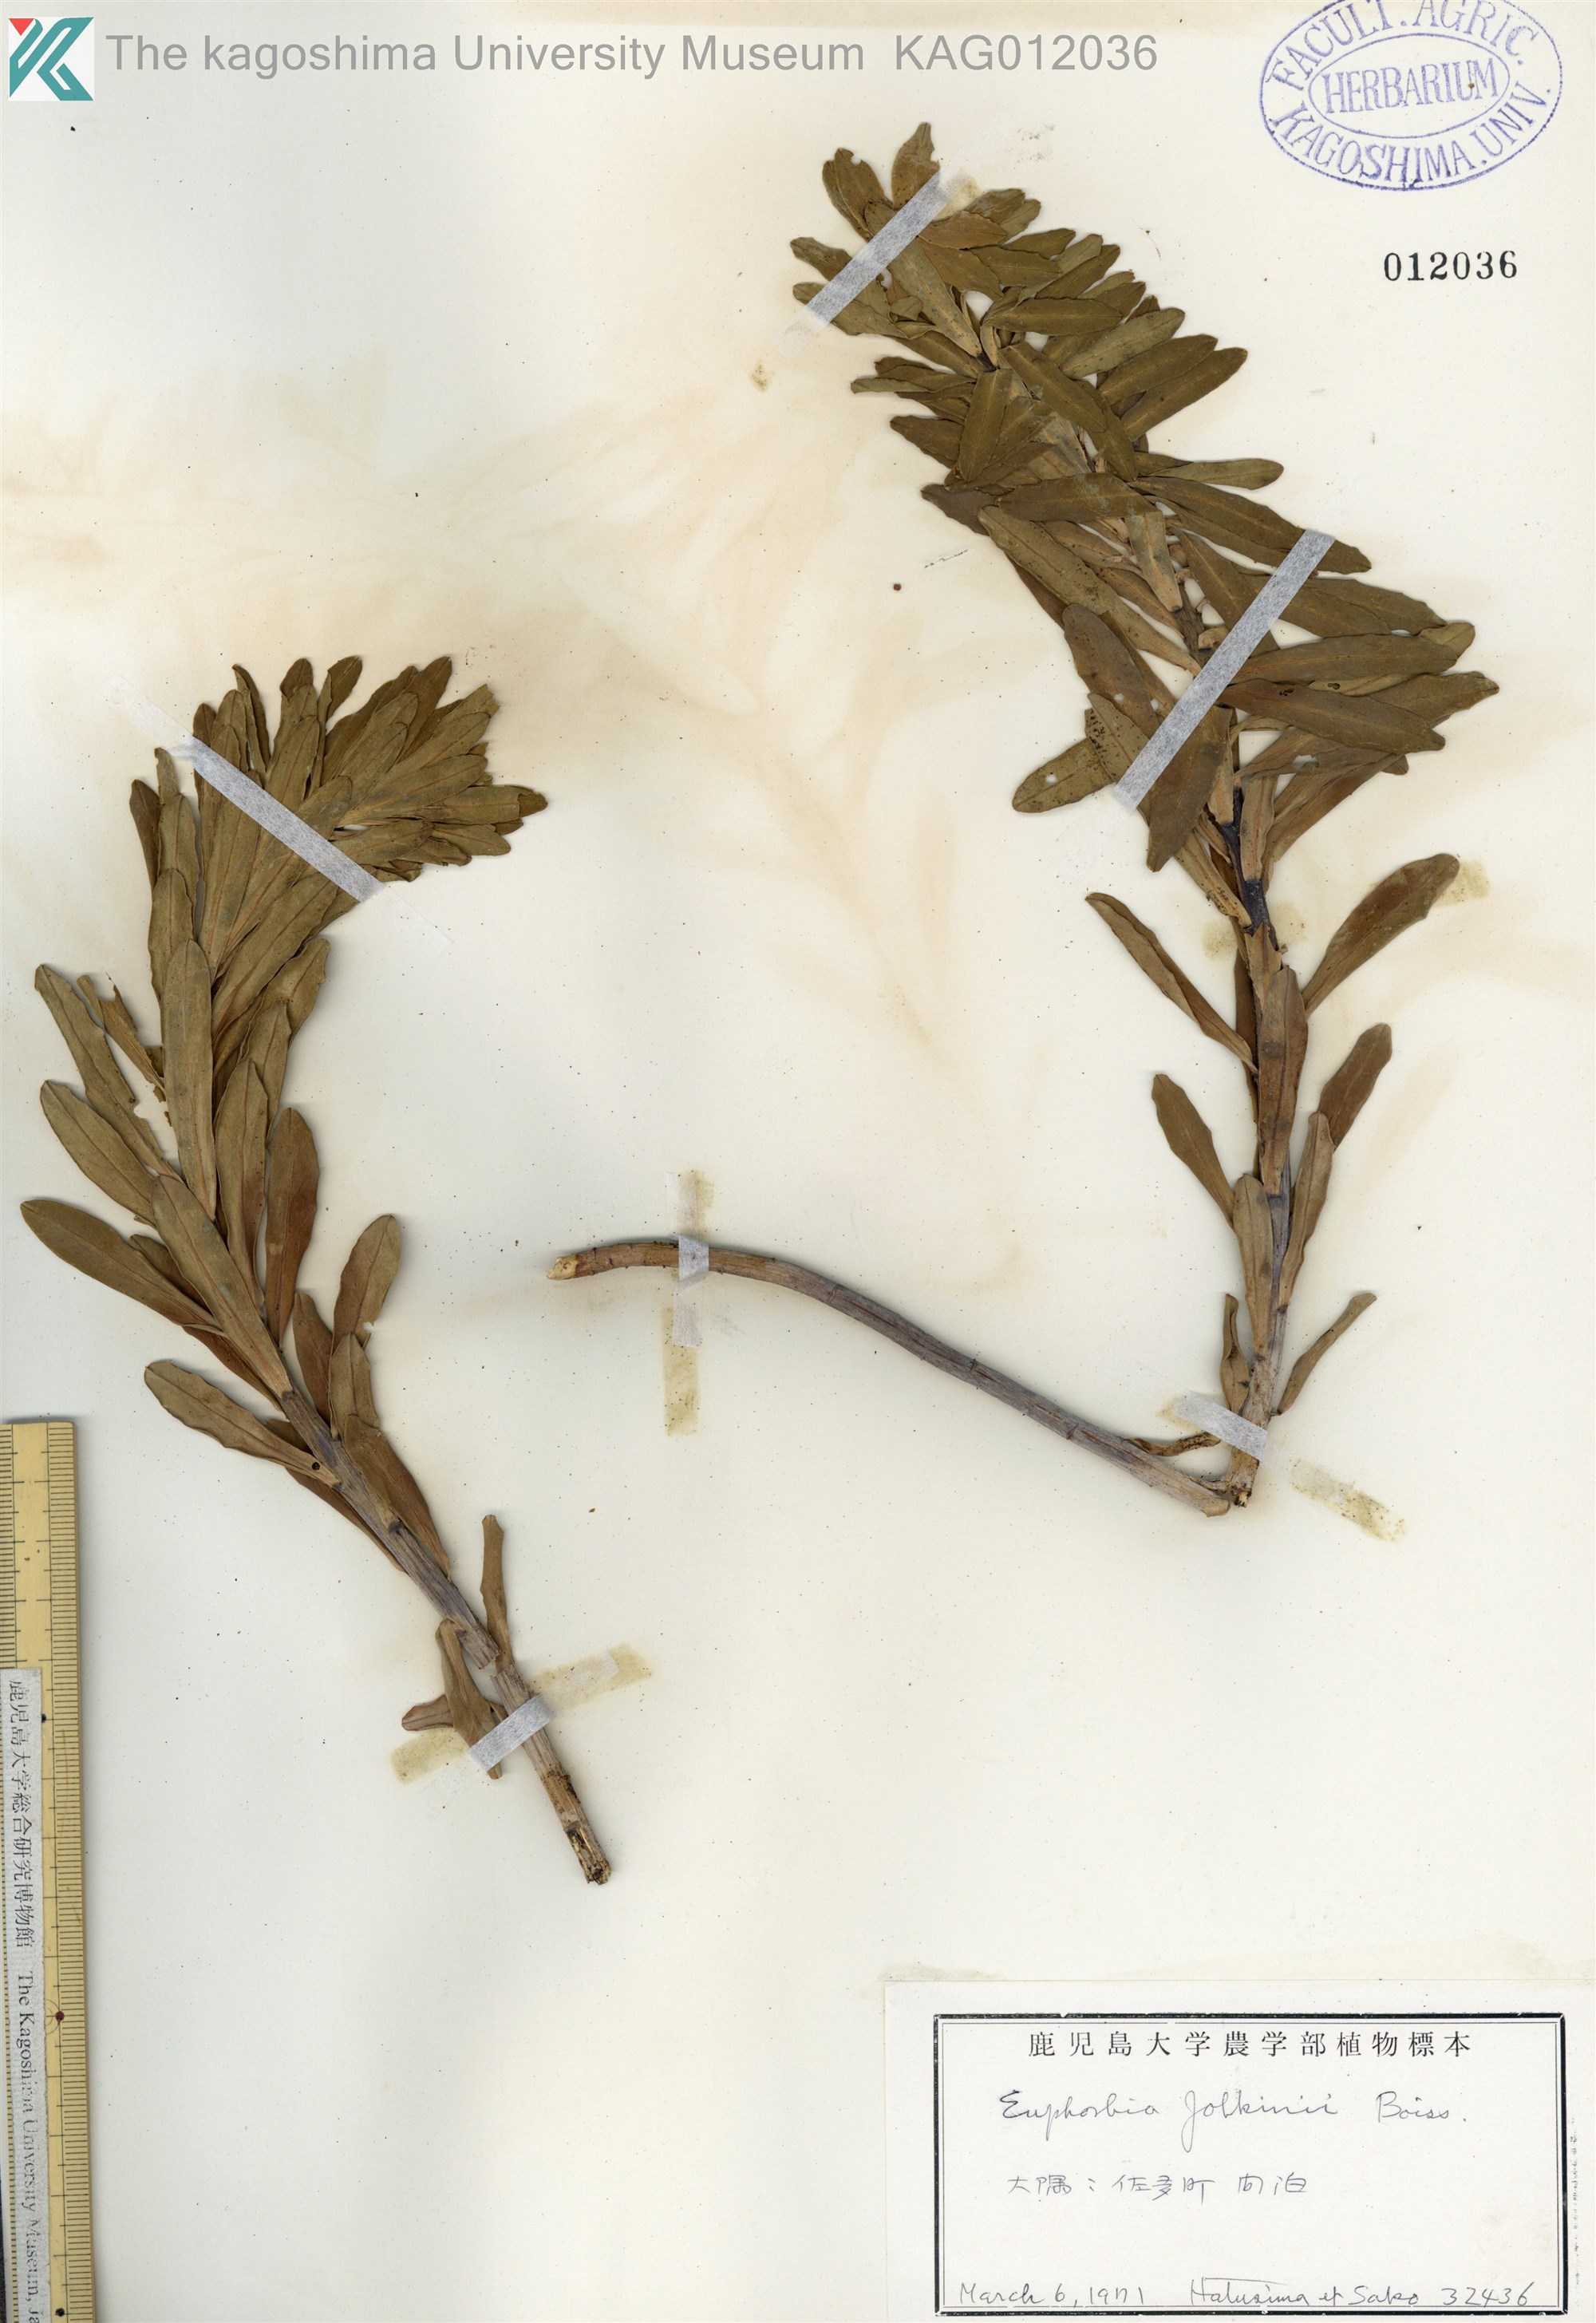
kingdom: Plantae
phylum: Tracheophyta
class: Magnoliopsida
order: Malpighiales
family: Euphorbiaceae
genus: Euphorbia
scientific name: Euphorbia jolkinii
